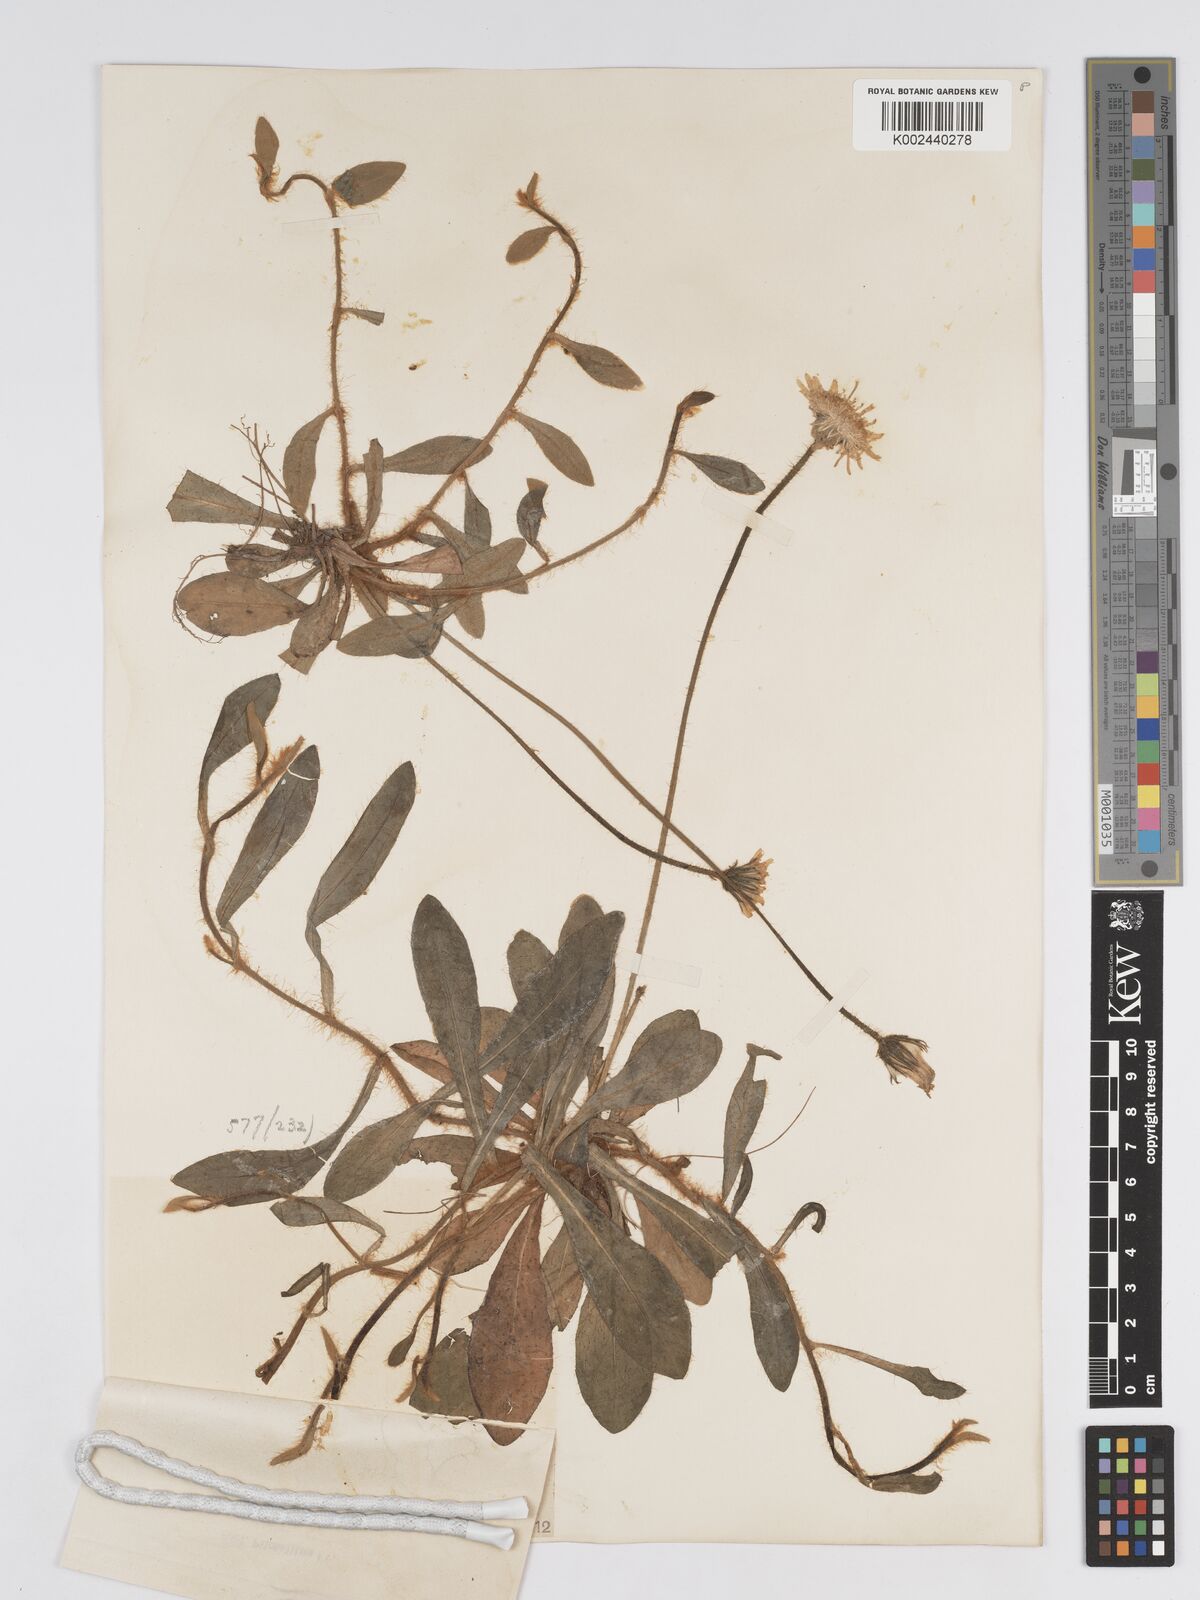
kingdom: Plantae
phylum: Tracheophyta
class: Magnoliopsida
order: Asterales
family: Asteraceae
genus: Pilosella
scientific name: Pilosella officinarum
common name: Mouse-ear hawkweed
